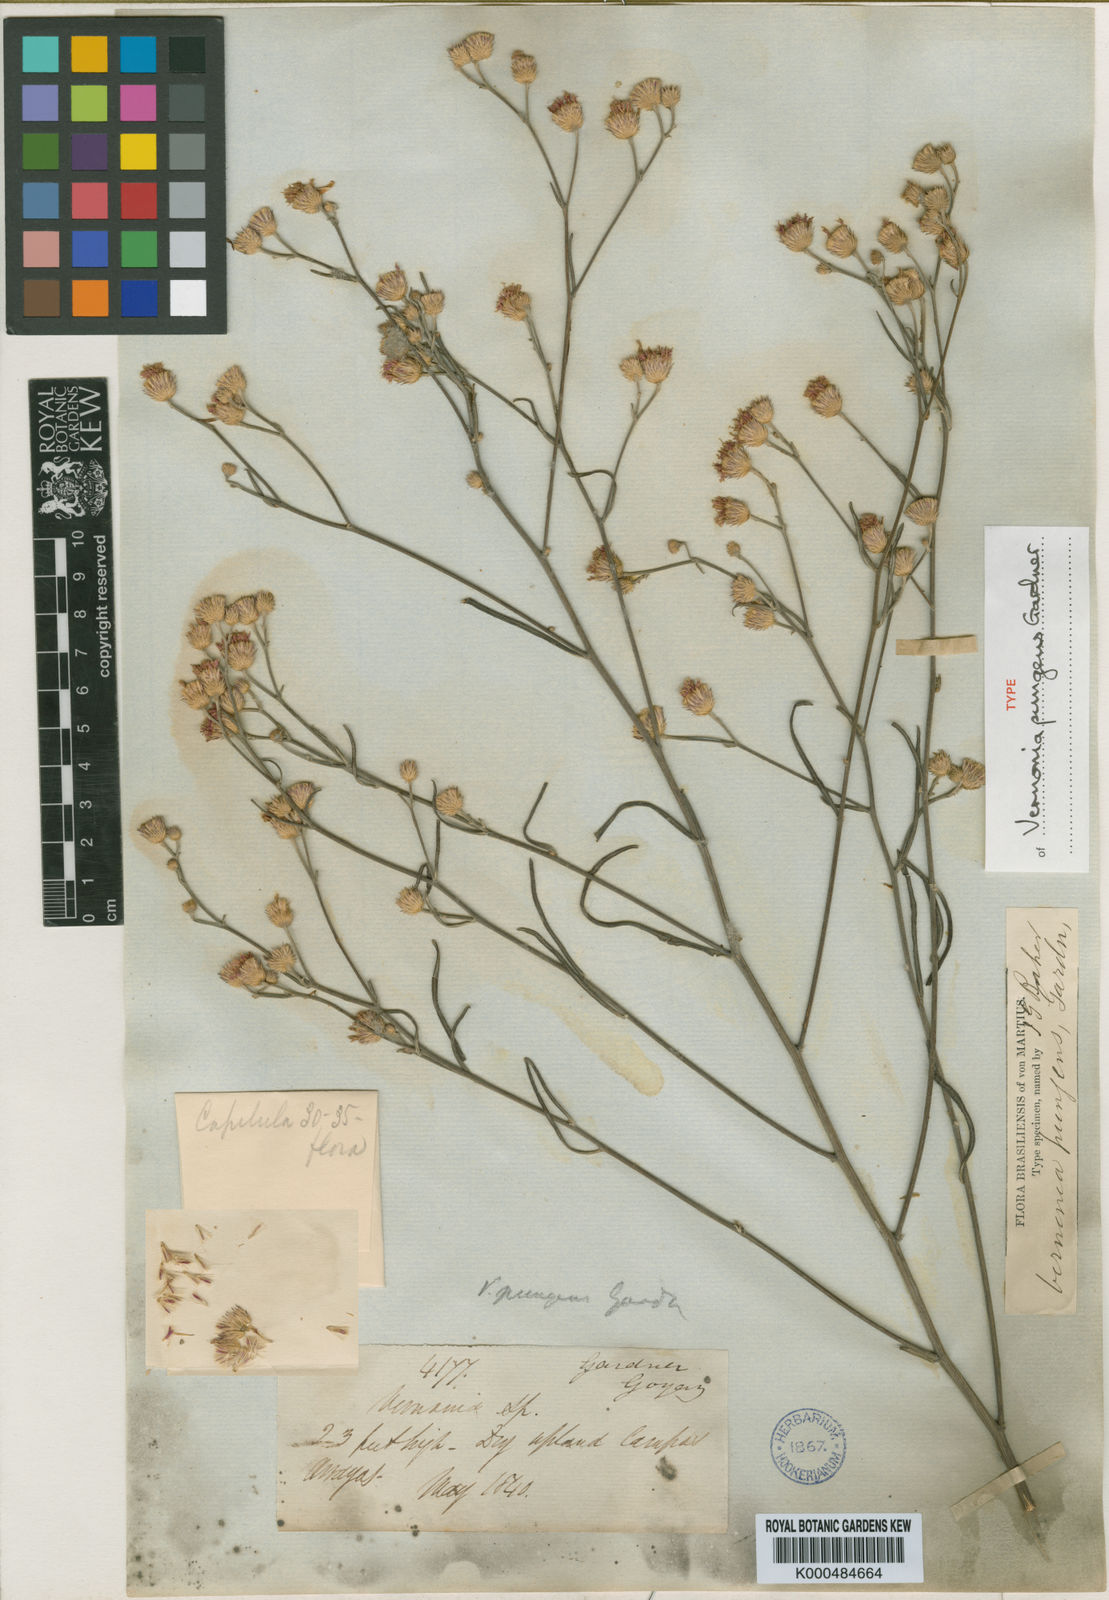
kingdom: Plantae
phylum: Tracheophyta
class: Magnoliopsida
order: Asterales
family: Asteraceae
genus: Echinocoryne
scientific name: Echinocoryne pungens
